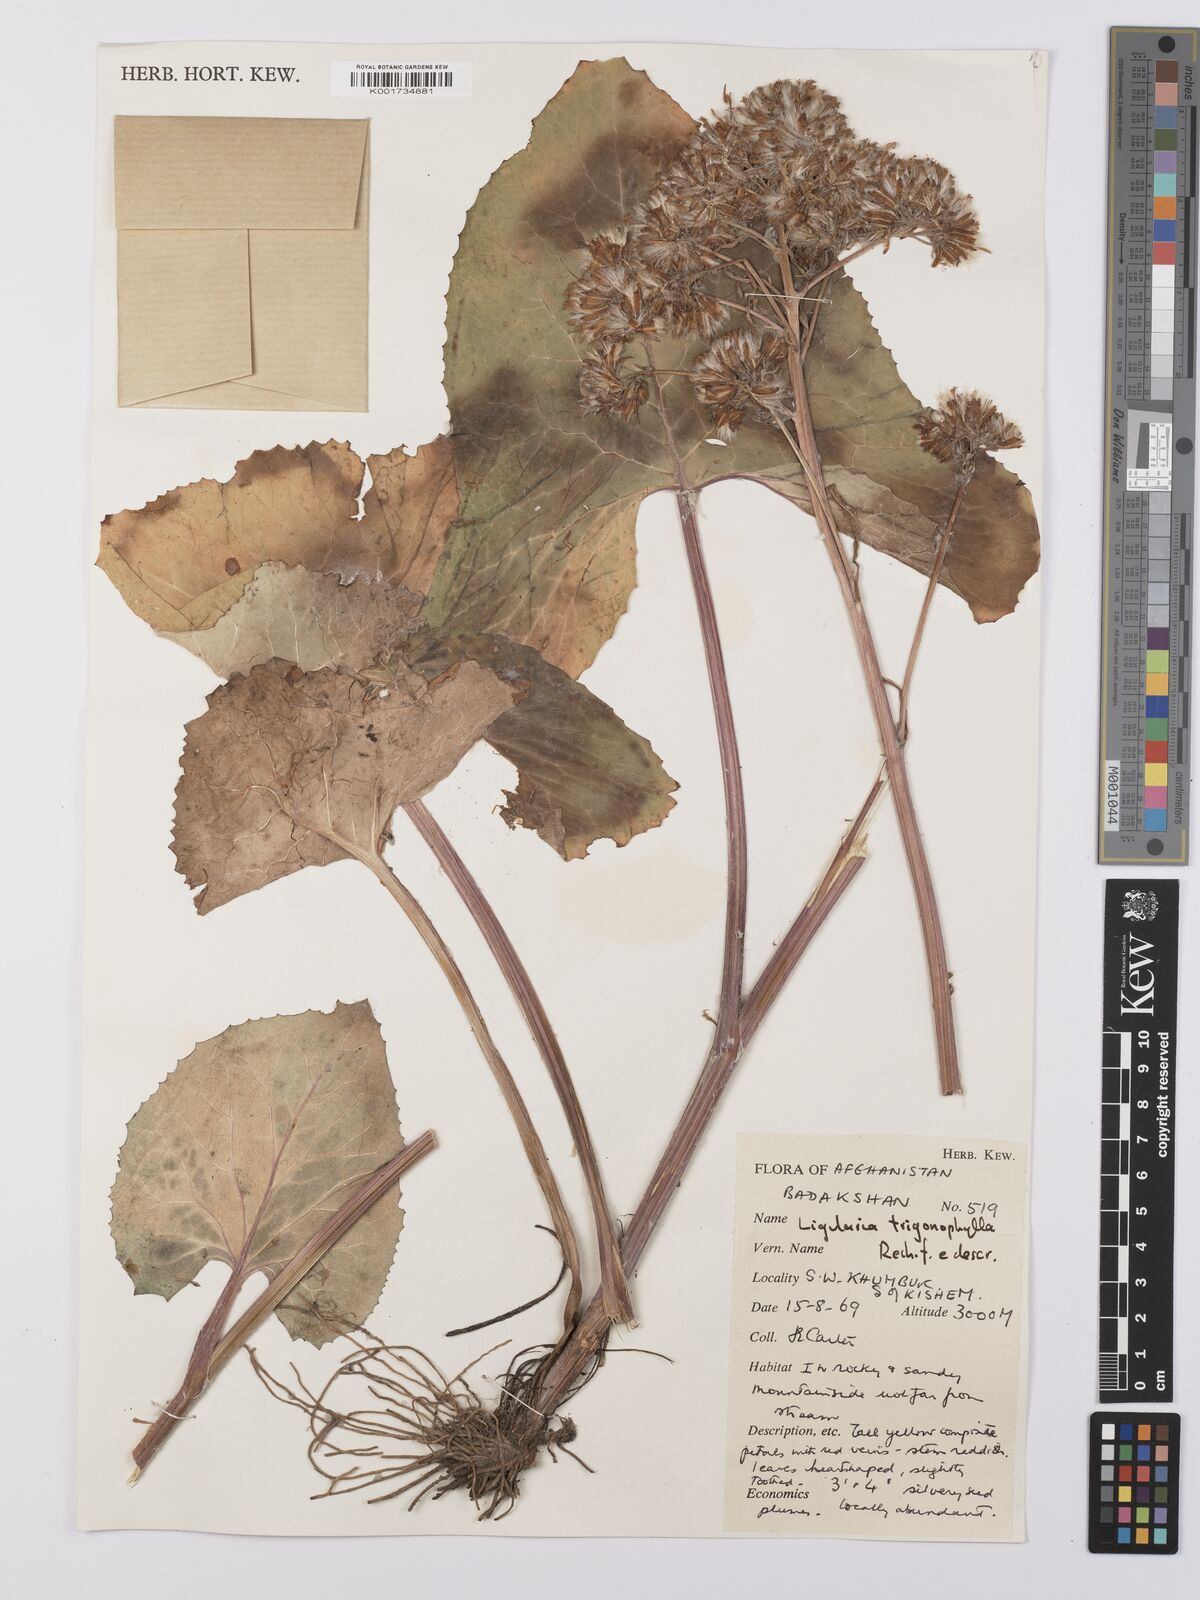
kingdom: Plantae
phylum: Tracheophyta
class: Magnoliopsida
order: Asterales
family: Asteraceae
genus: Vickifunkia
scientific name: Vickifunkia thomsonii
